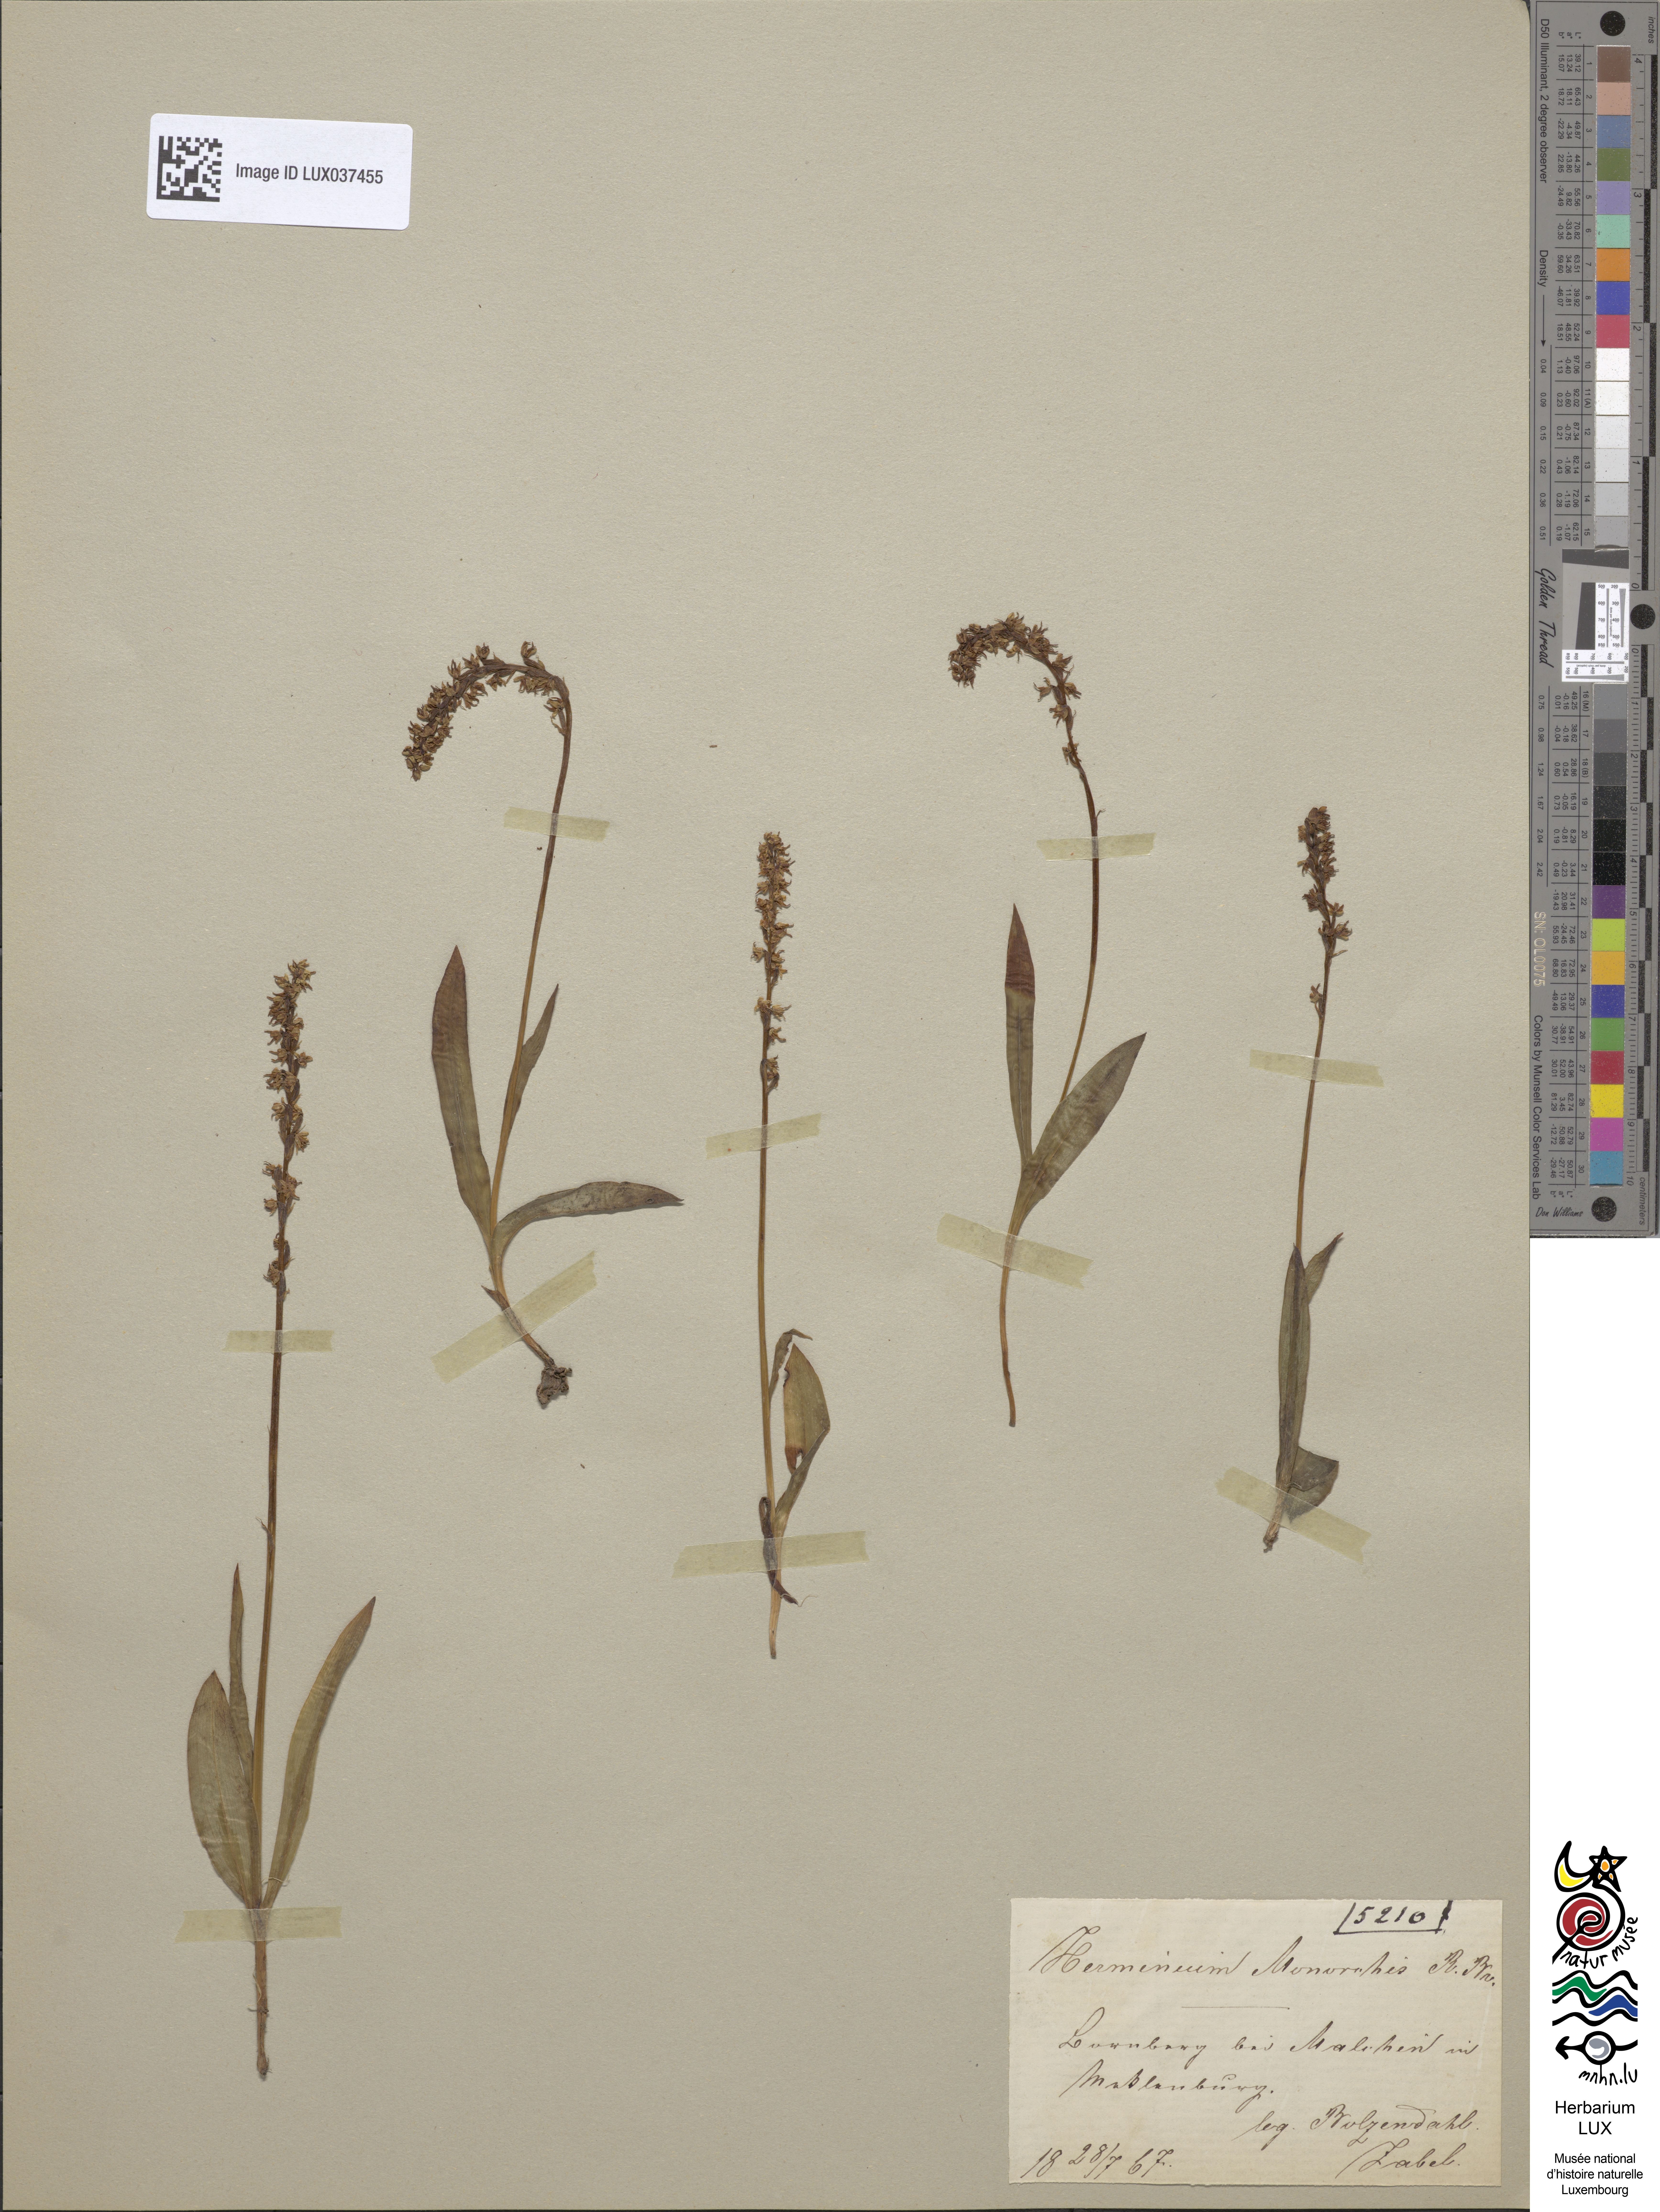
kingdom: Plantae
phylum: Tracheophyta
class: Liliopsida
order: Asparagales
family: Orchidaceae
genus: Herminium
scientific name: Herminium monorchis
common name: Musk orchid
